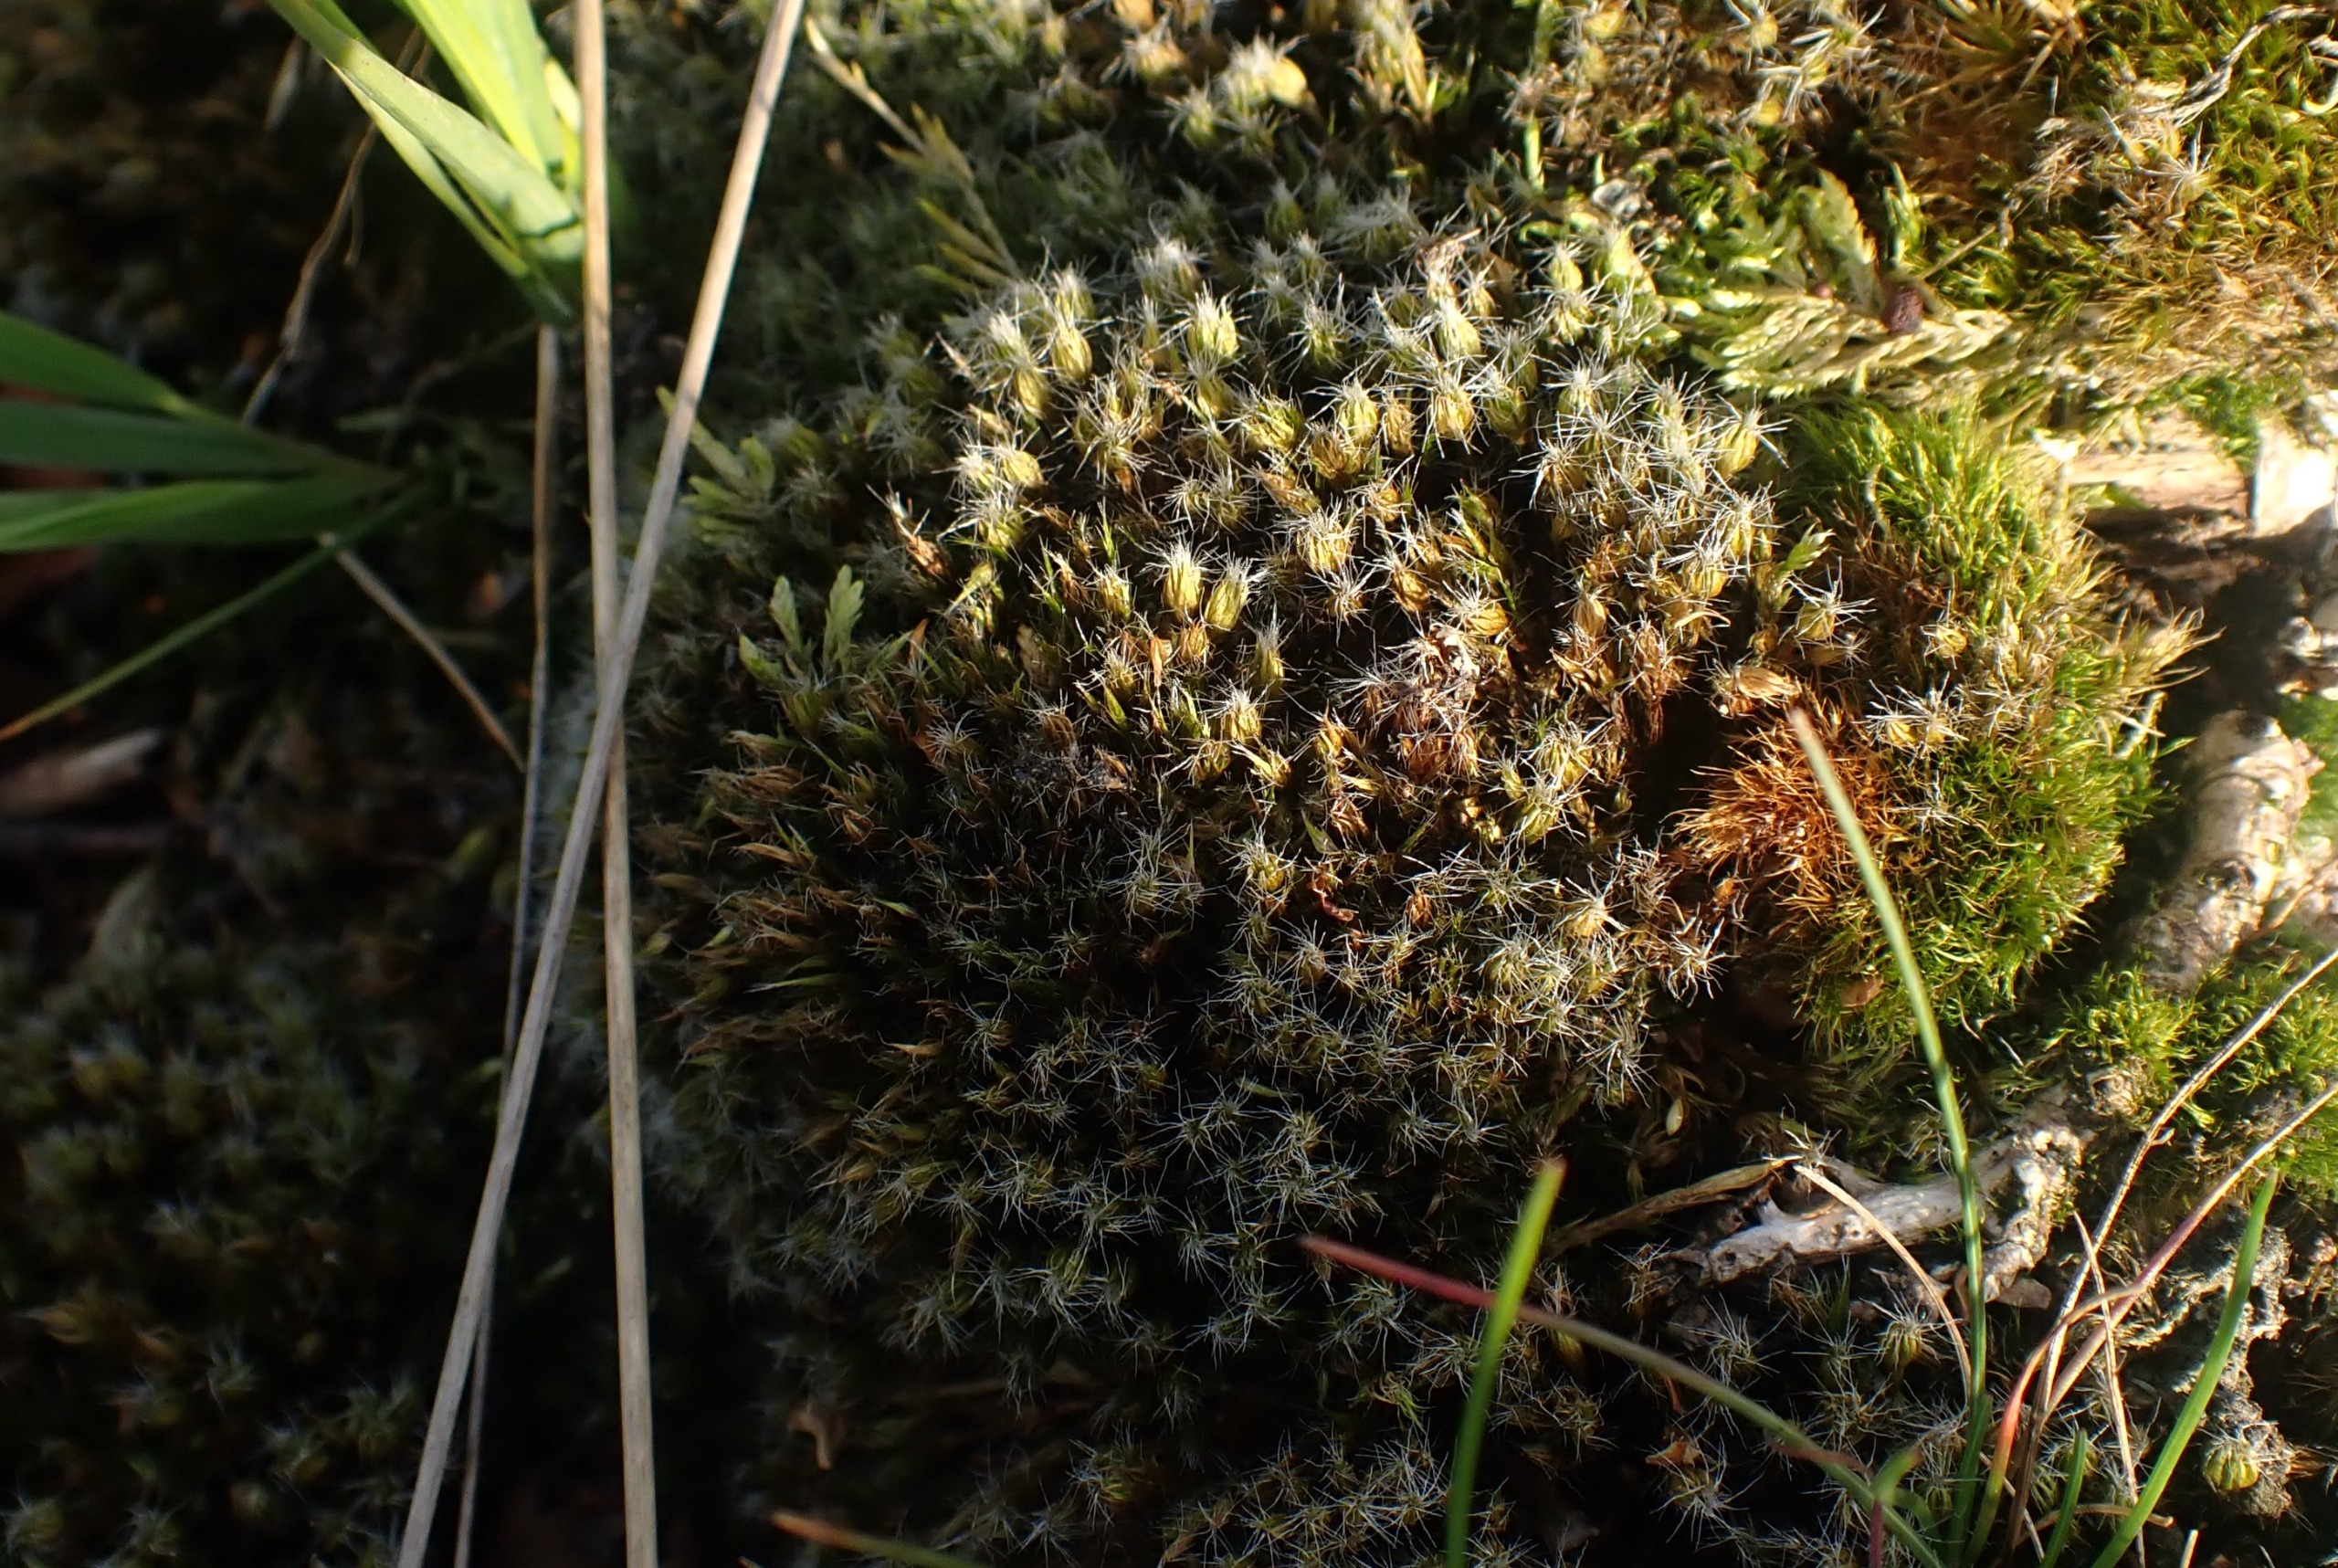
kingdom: Plantae
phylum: Bryophyta
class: Bryopsida
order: Dicranales
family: Leucobryaceae
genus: Campylopus
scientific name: Campylopus introflexus
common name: Stjerne-bredribbe
